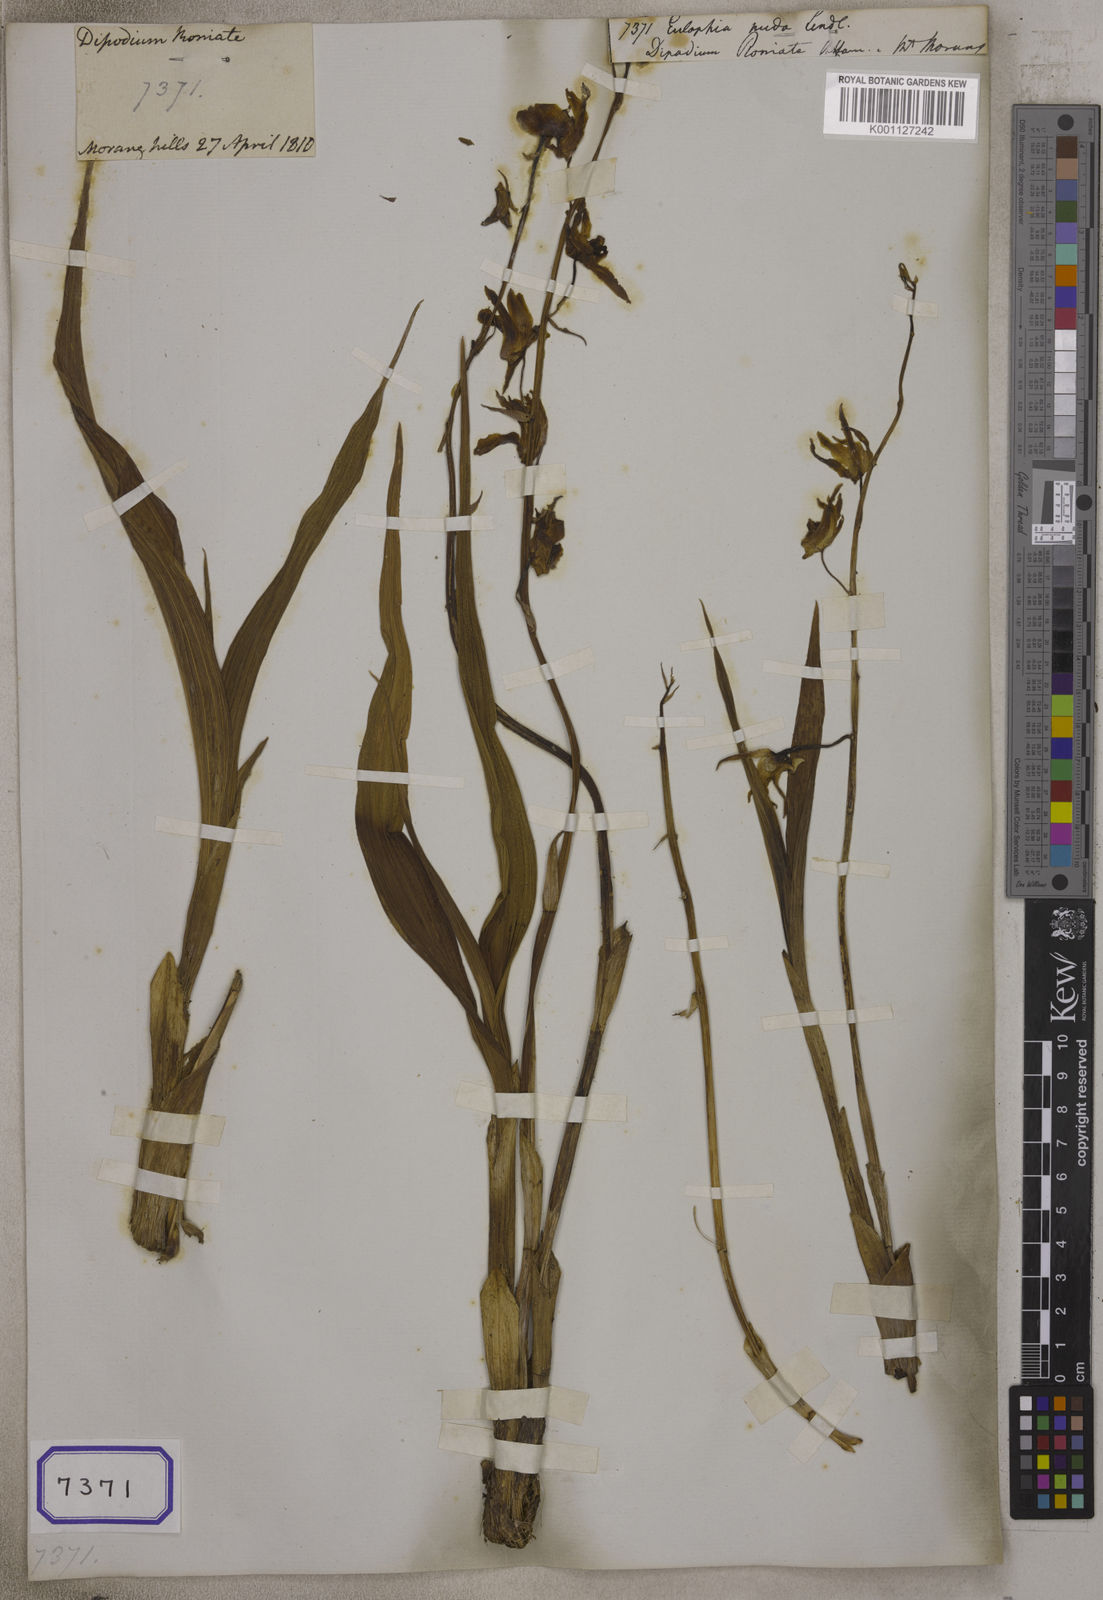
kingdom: Plantae
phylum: Tracheophyta
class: Liliopsida
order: Asparagales
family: Orchidaceae
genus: Eulophia
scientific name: Eulophia nuda
